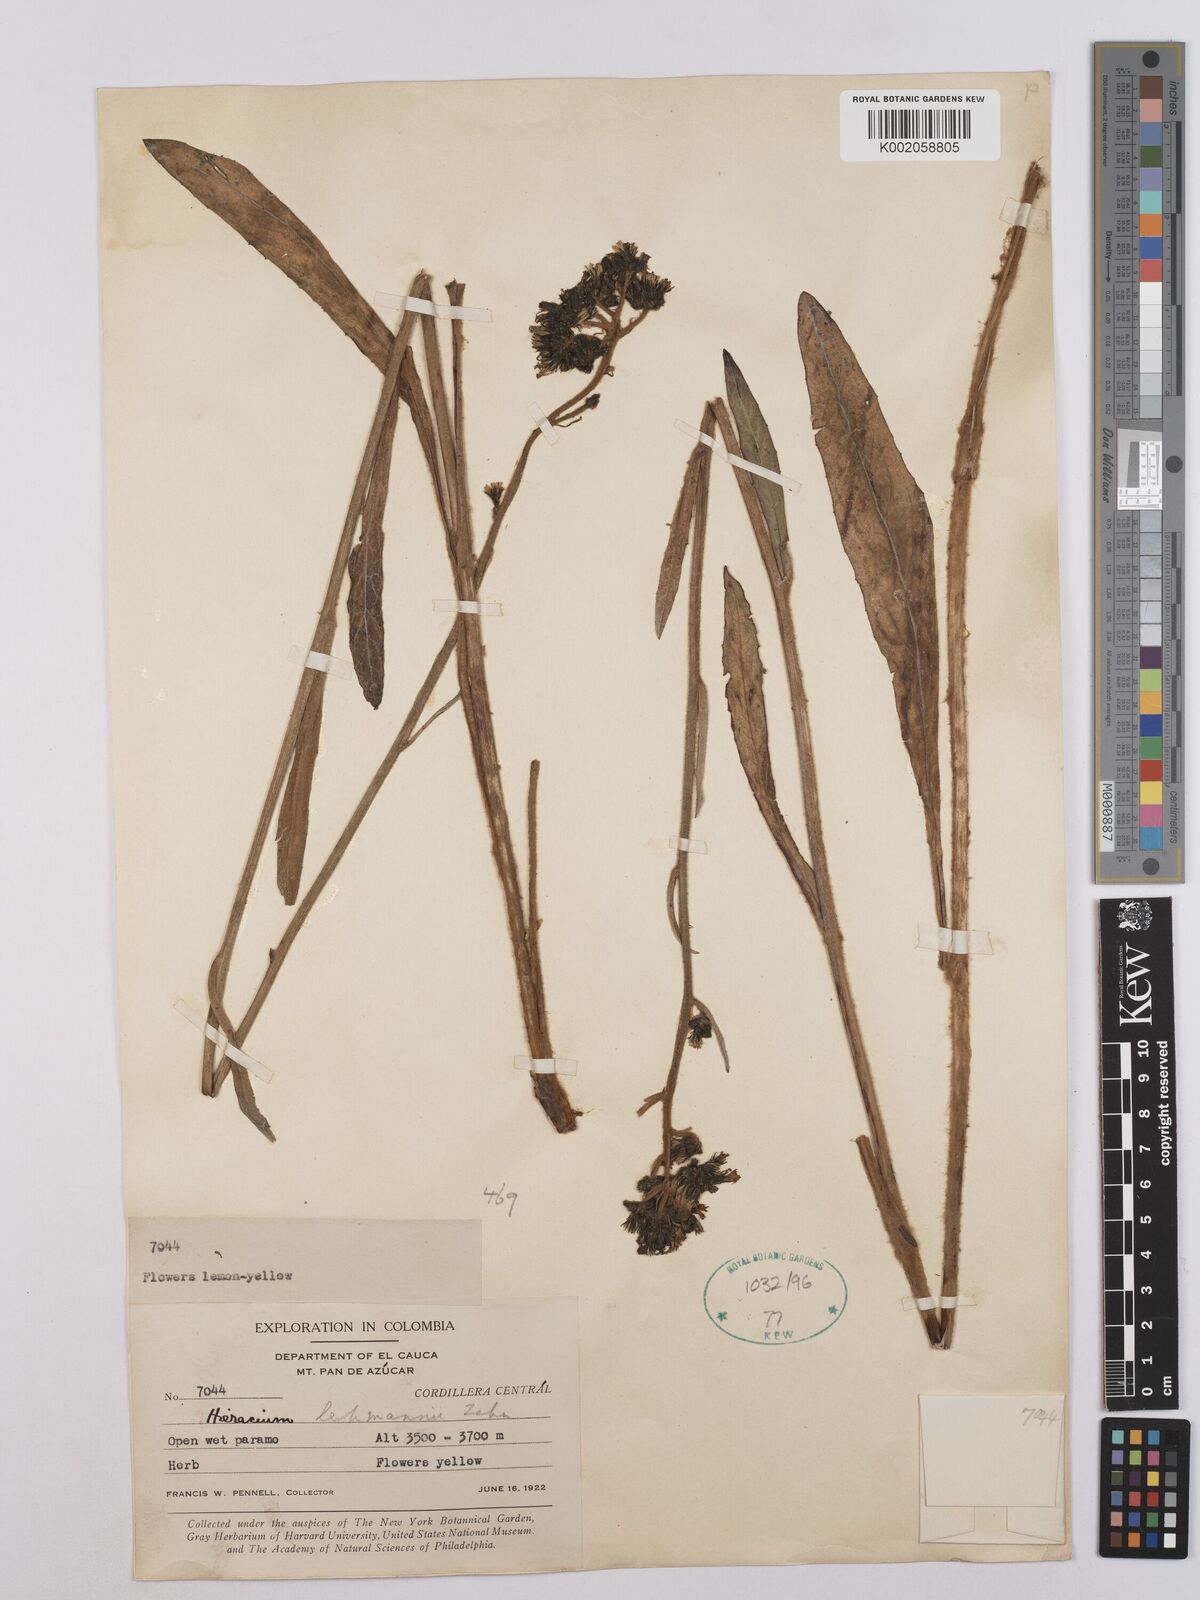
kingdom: Plantae
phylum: Tracheophyta
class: Magnoliopsida
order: Asterales
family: Asteraceae
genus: Hieracium
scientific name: Hieracium lehmannii
